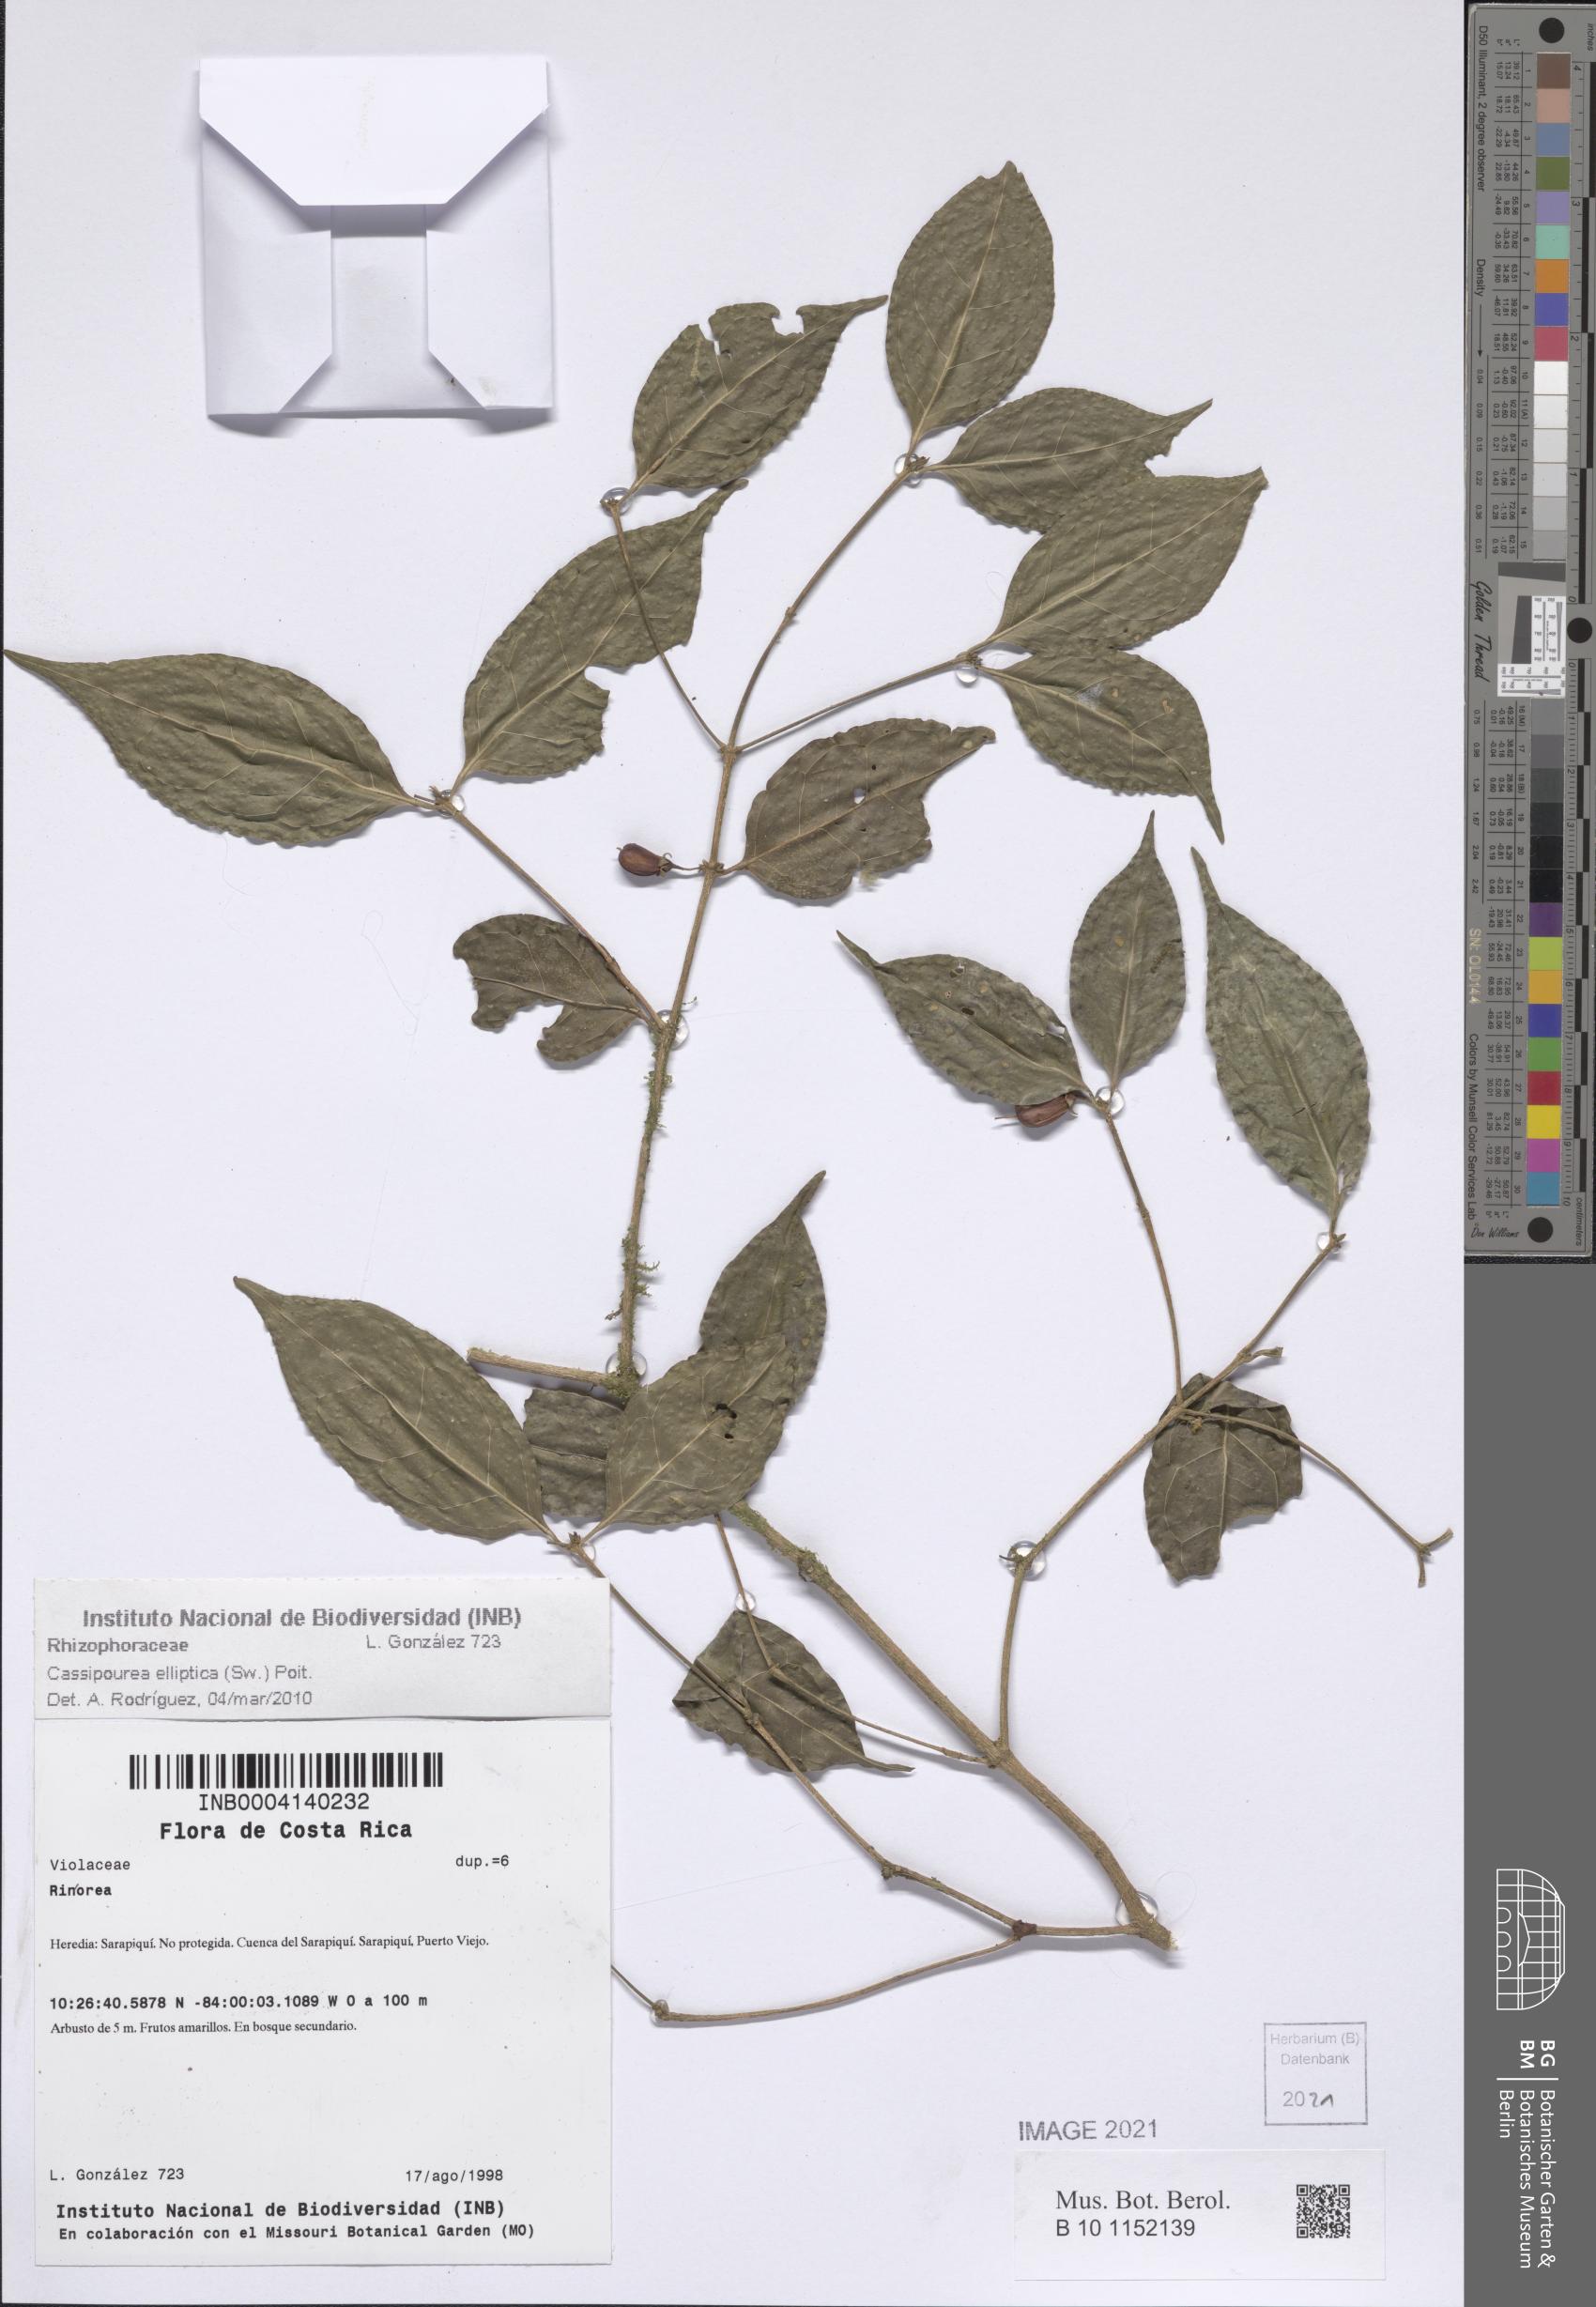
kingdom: Plantae
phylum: Tracheophyta
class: Magnoliopsida
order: Malpighiales
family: Rhizophoraceae
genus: Cassipourea
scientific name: Cassipourea elliptica
